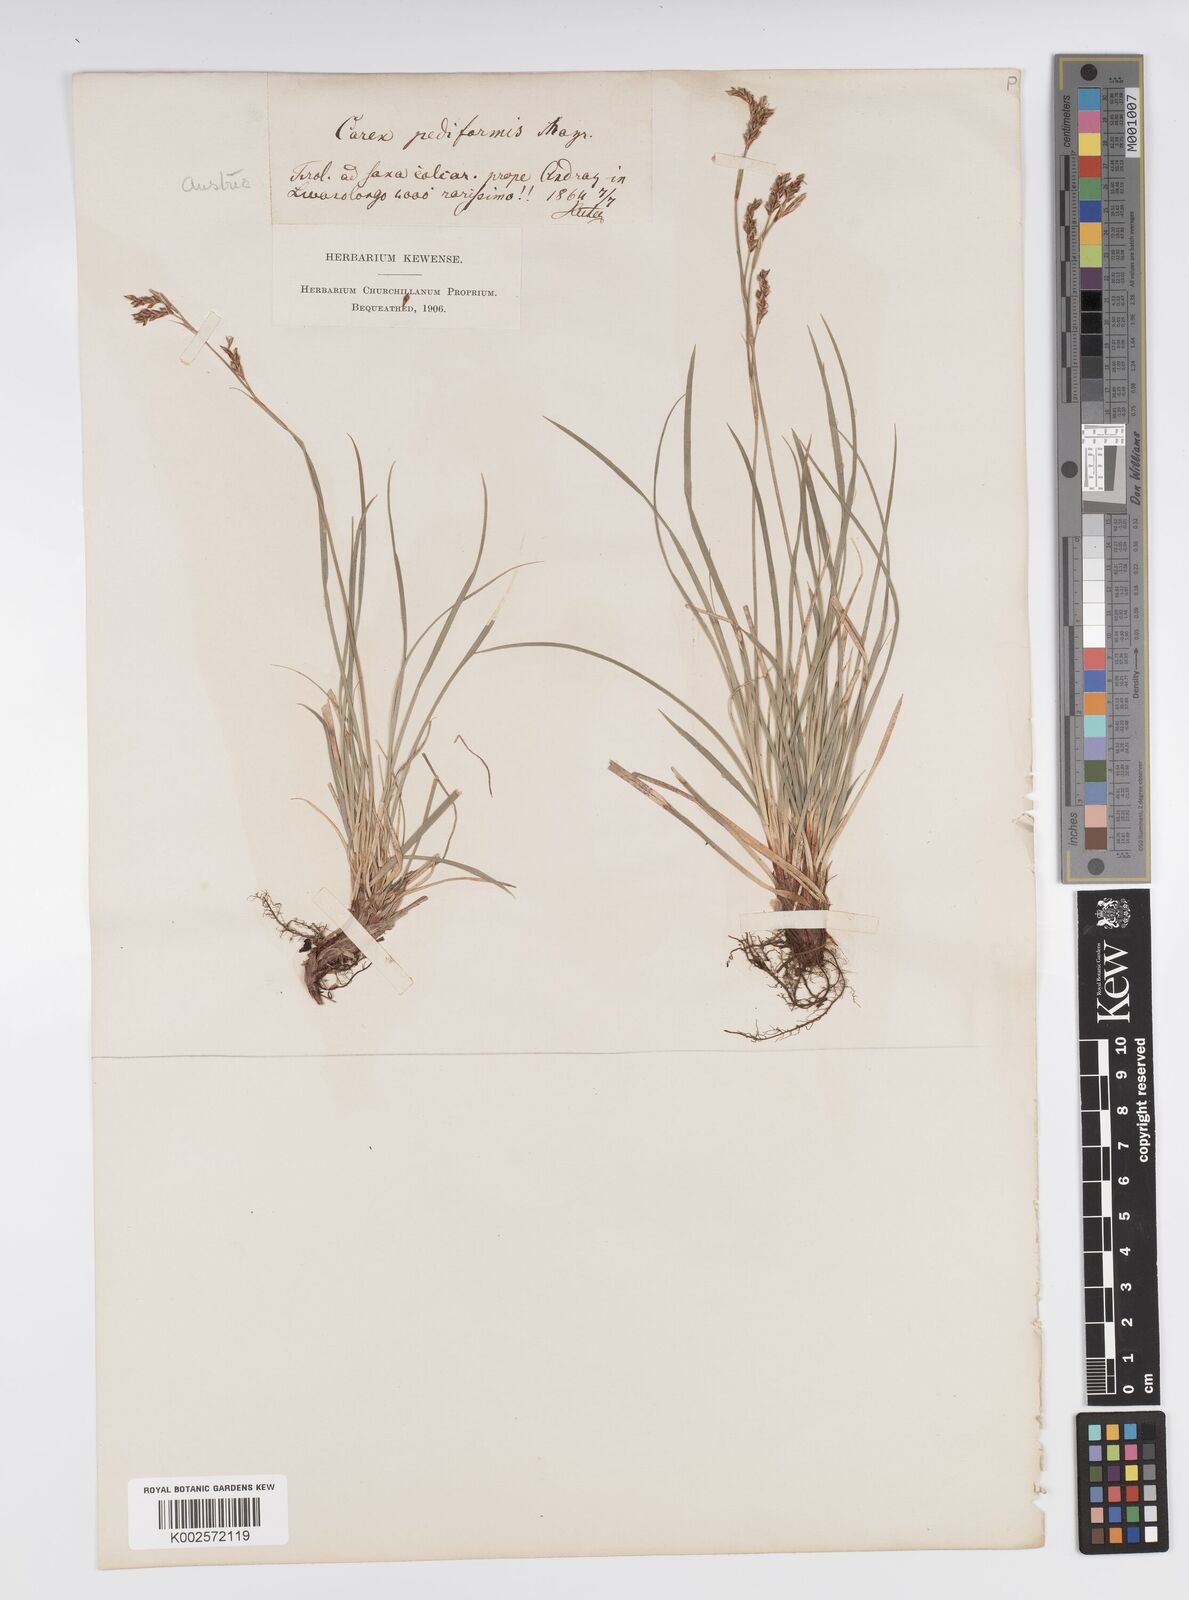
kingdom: Plantae
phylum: Tracheophyta
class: Liliopsida
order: Poales
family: Cyperaceae
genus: Carex
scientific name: Carex pediformis
